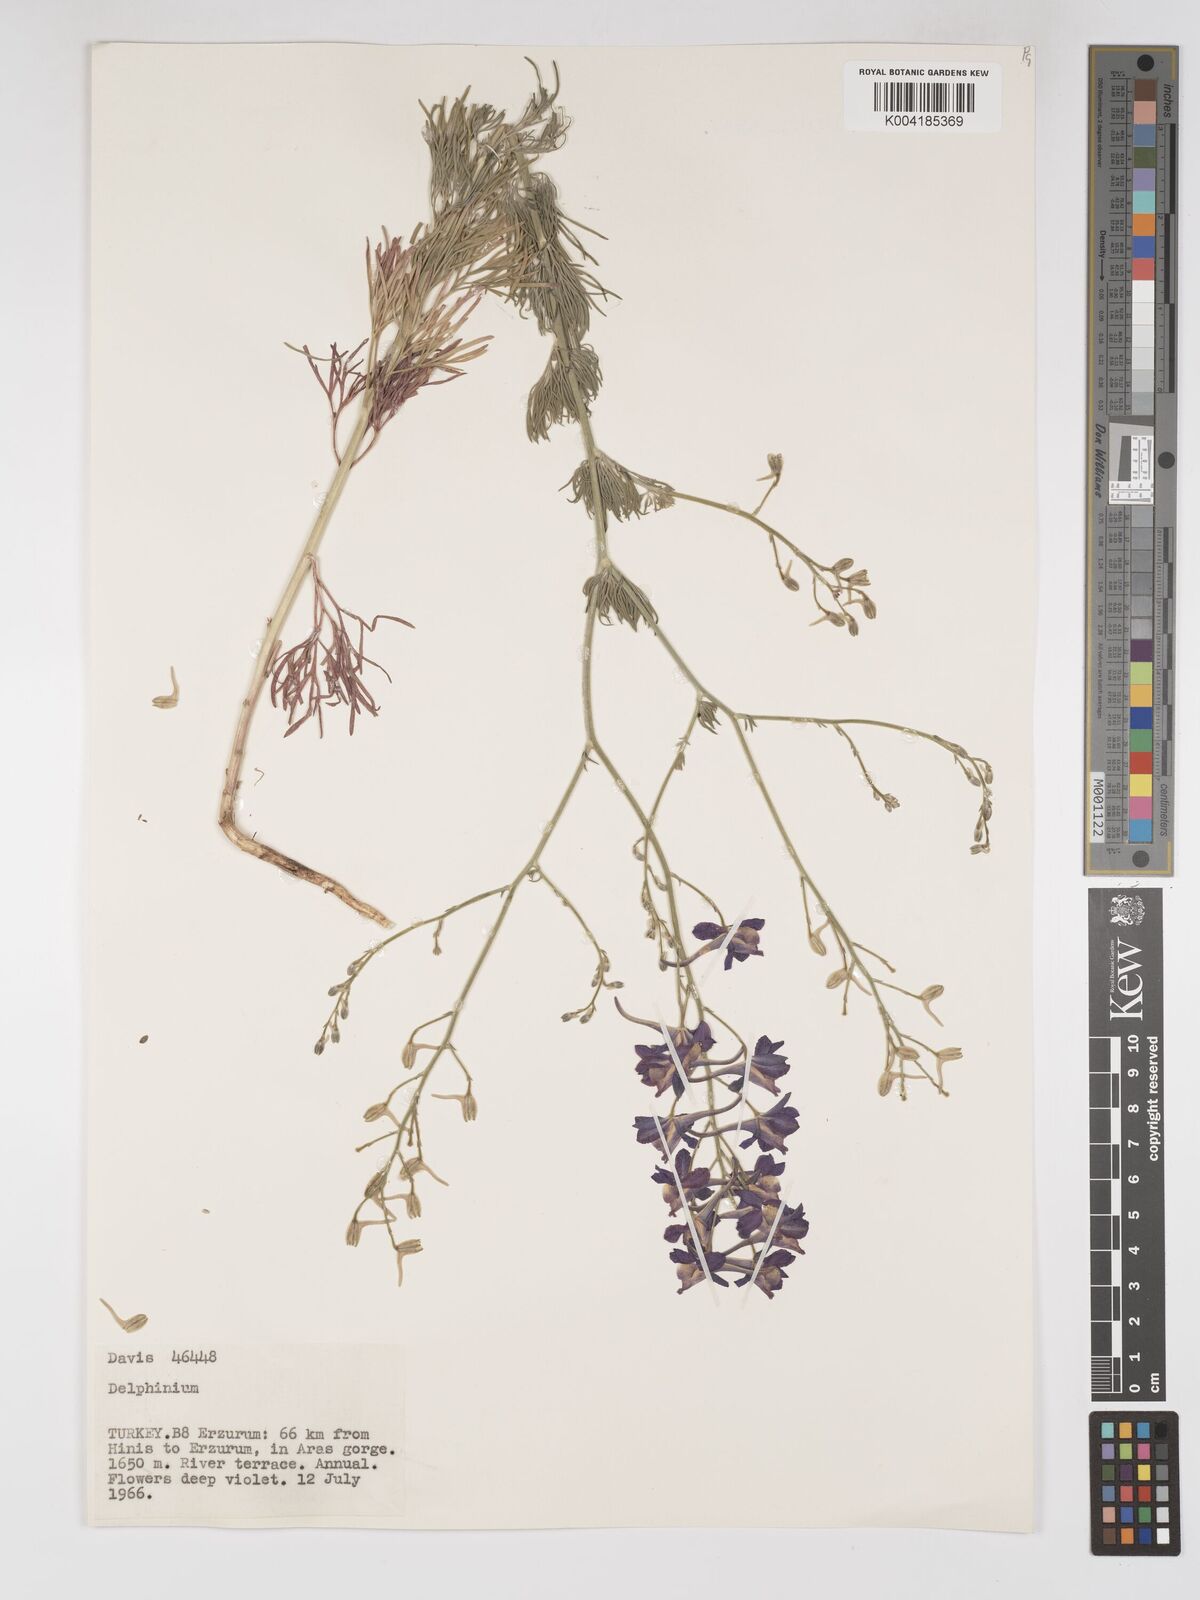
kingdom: Plantae
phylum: Tracheophyta
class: Magnoliopsida
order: Ranunculales
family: Ranunculaceae
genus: Delphinium
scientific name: Delphinium
